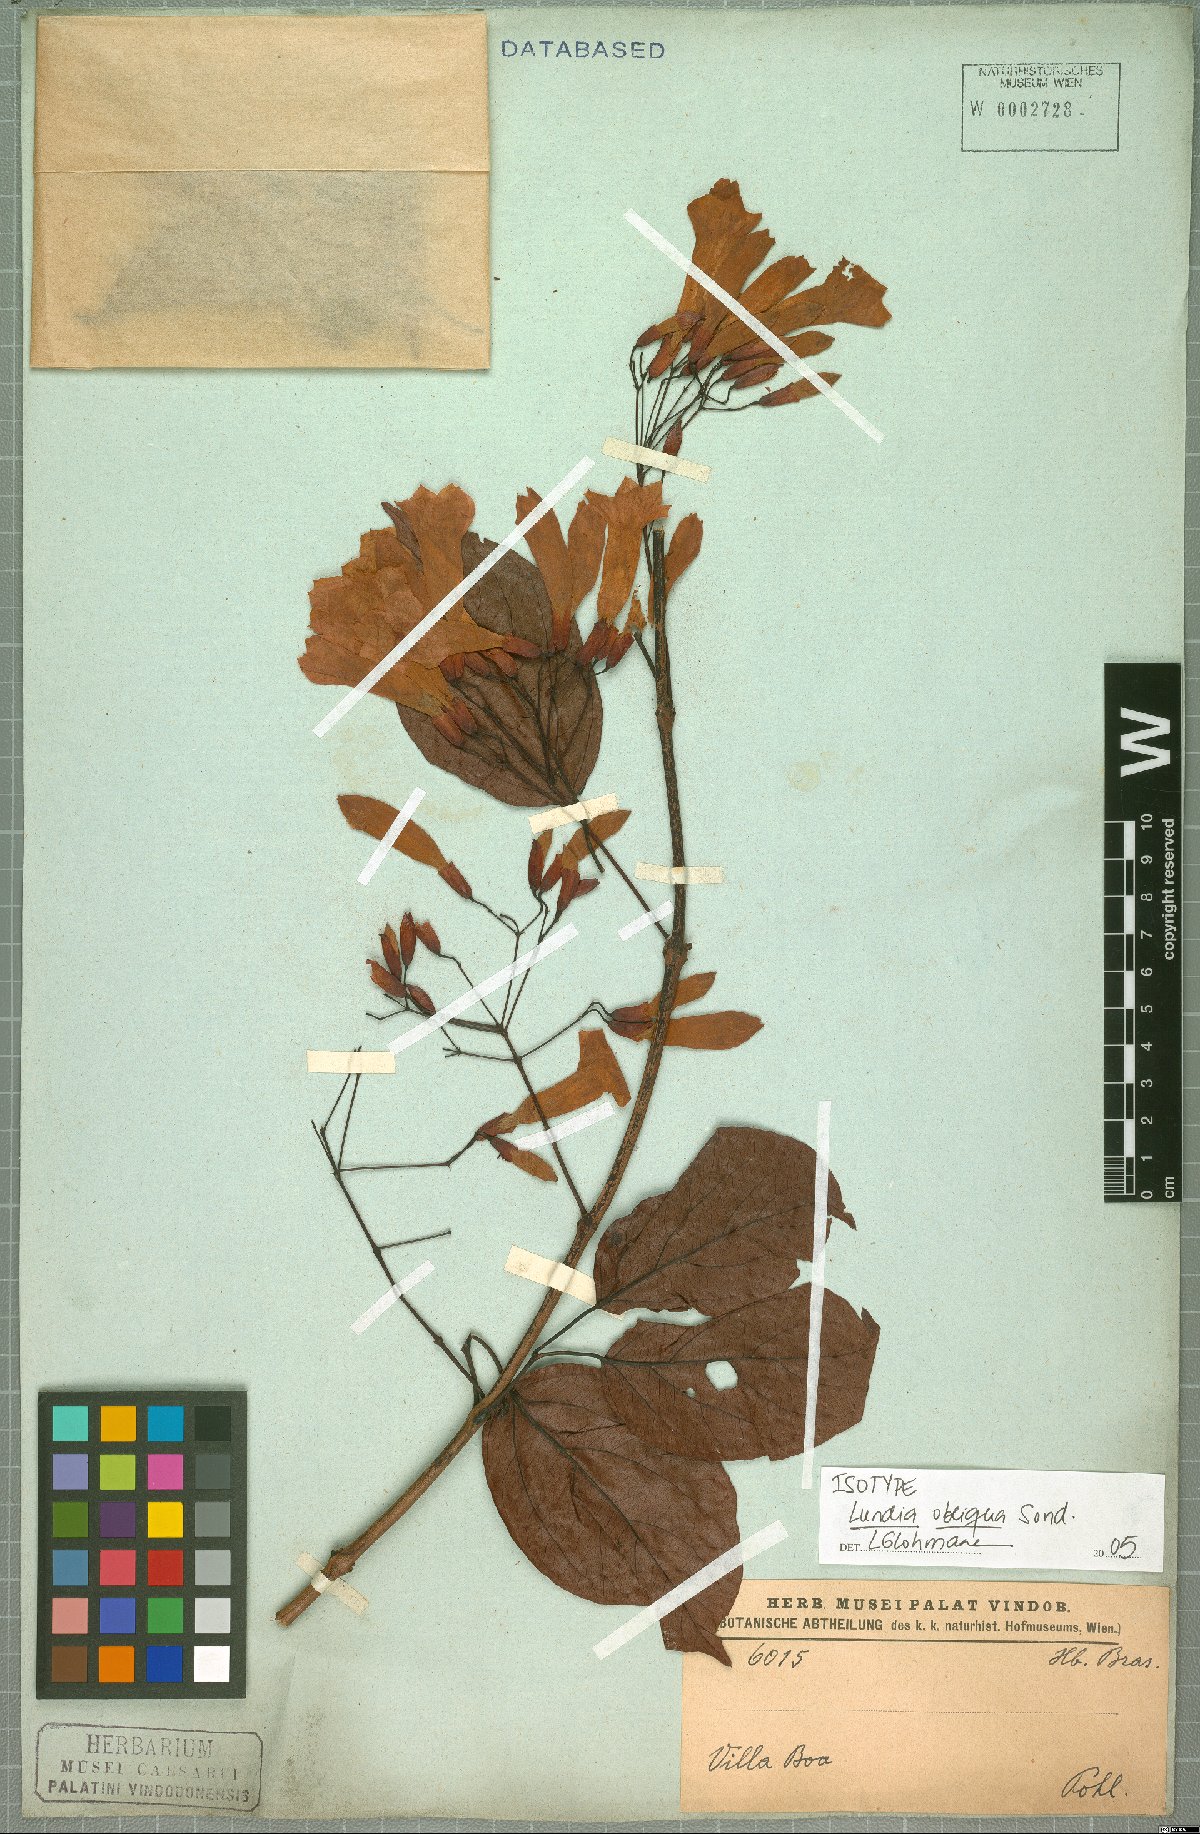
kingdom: Plantae
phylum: Tracheophyta
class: Magnoliopsida
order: Lamiales
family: Bignoniaceae
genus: Lundia
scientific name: Lundia obliqua
